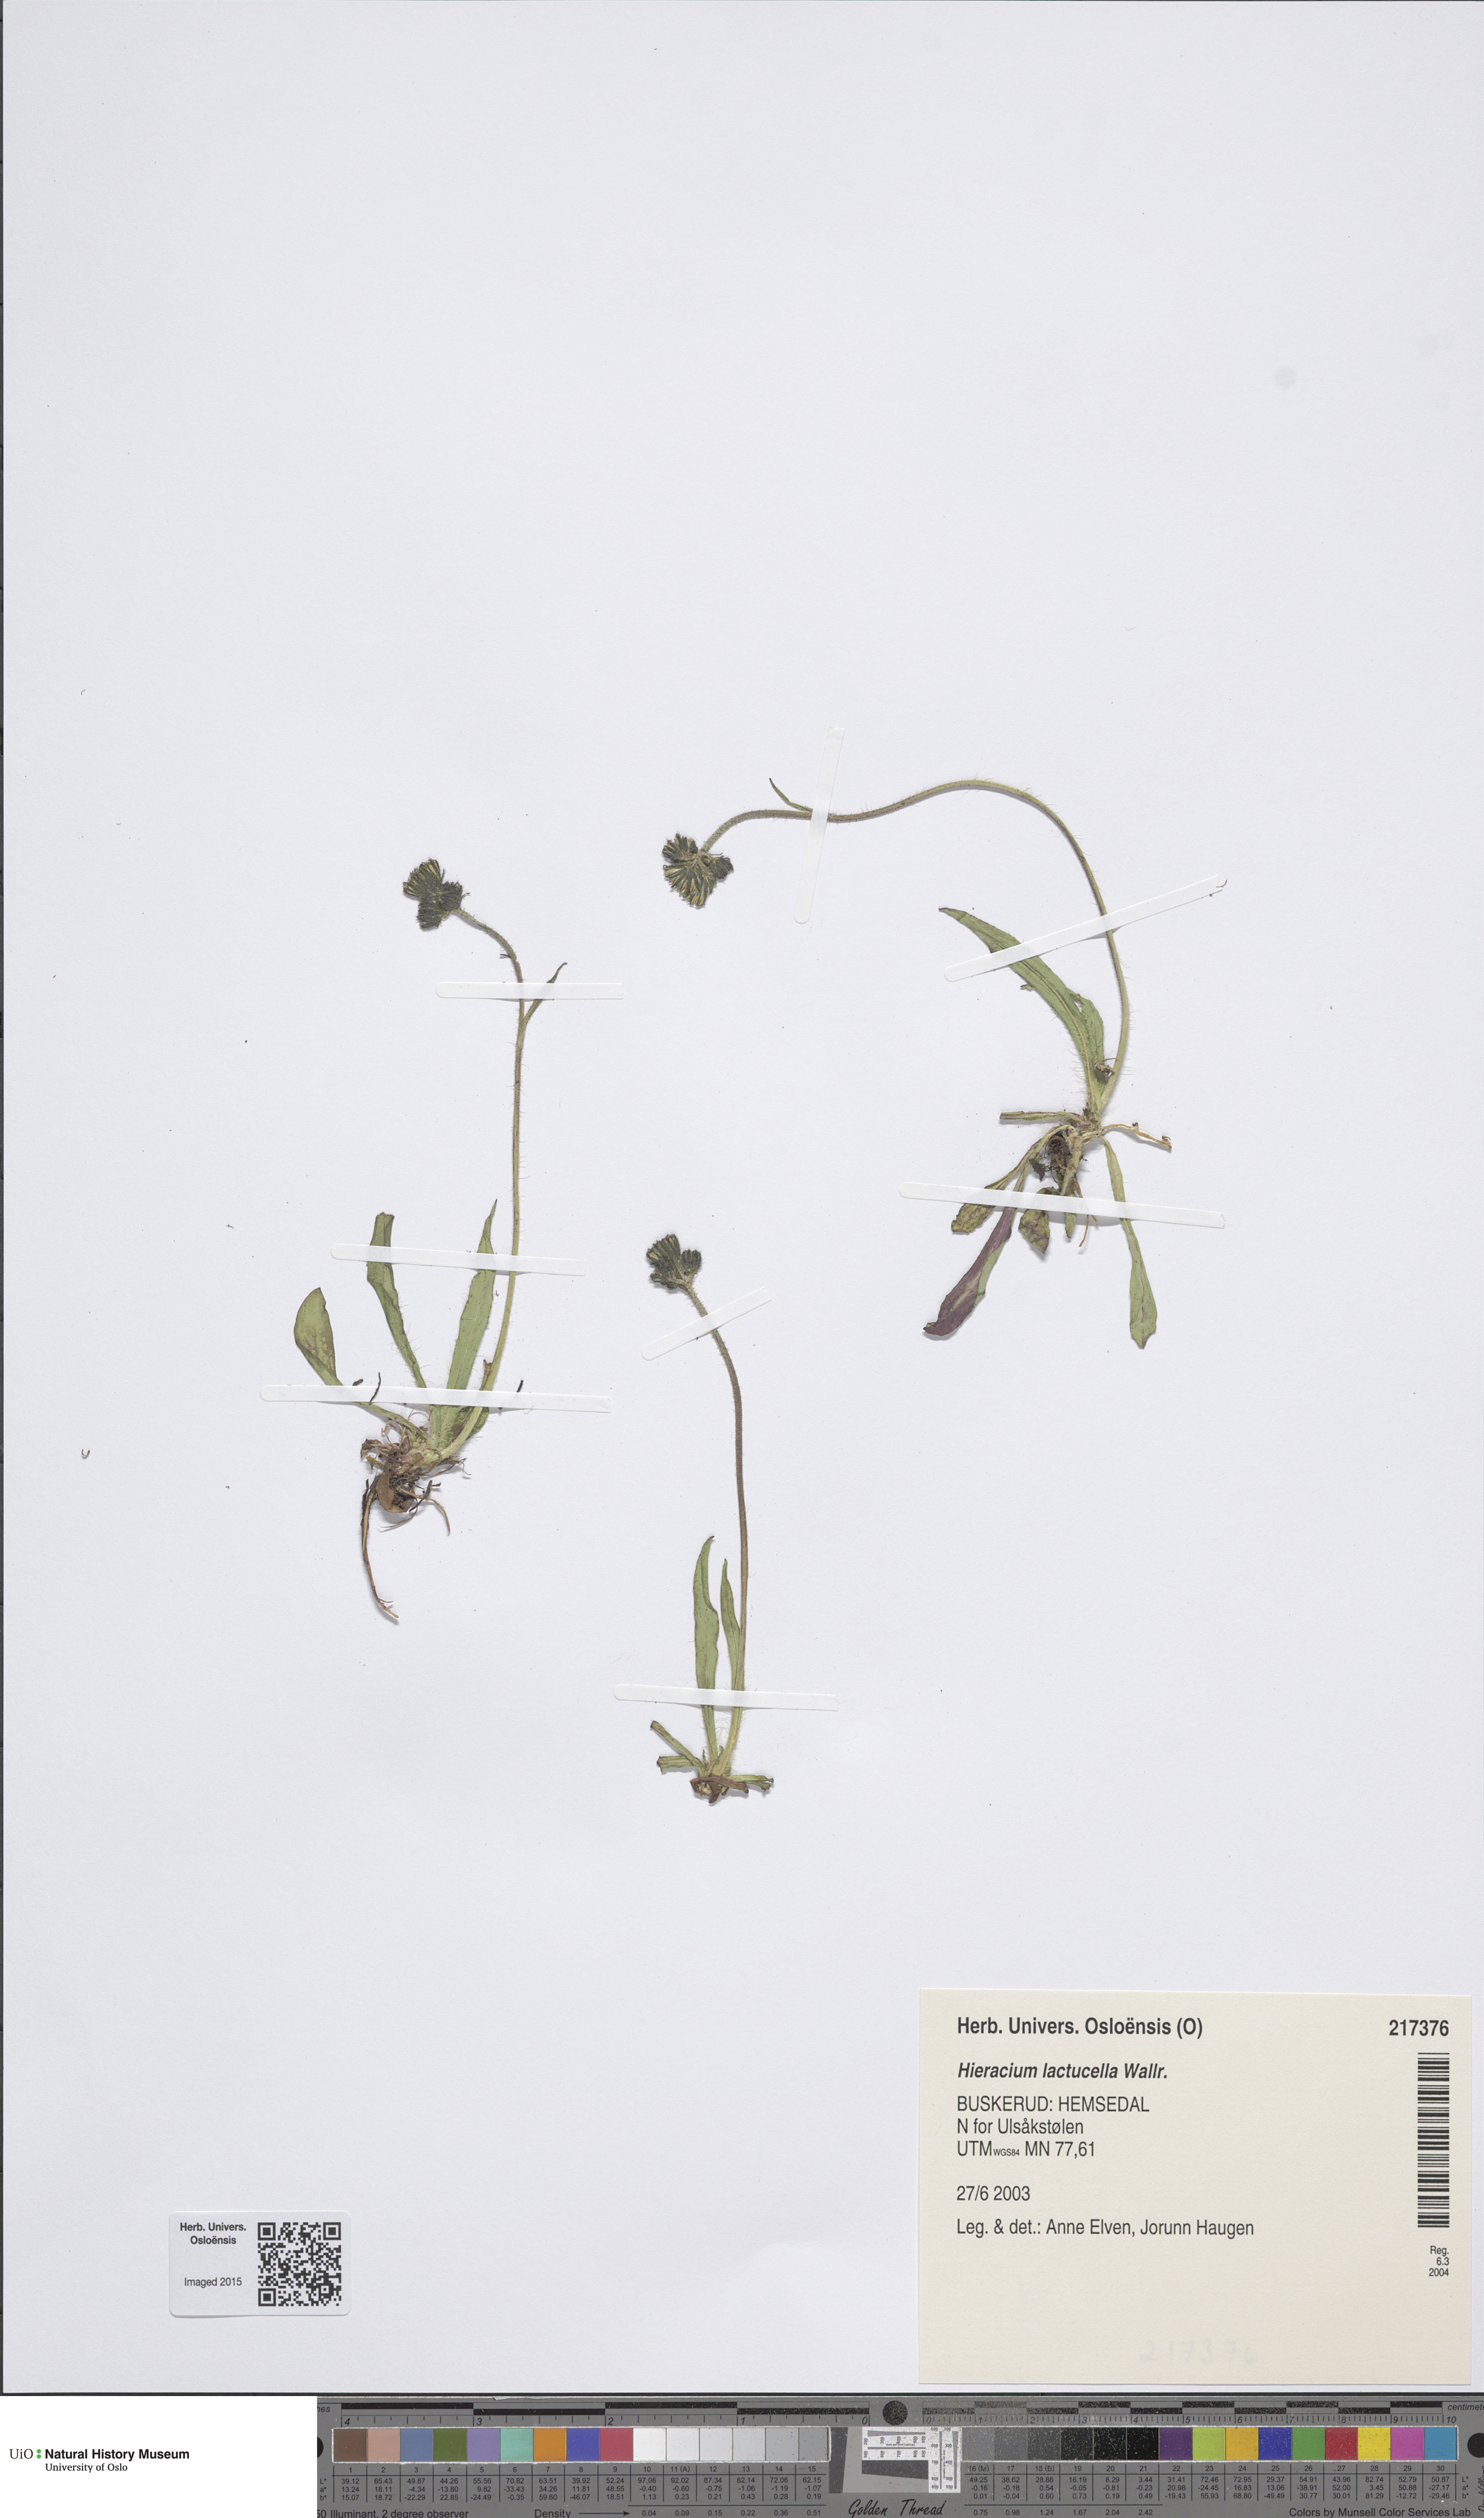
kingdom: Plantae
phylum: Tracheophyta
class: Magnoliopsida
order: Asterales
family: Asteraceae
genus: Pilosella
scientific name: Pilosella lactucella
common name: Glaucous fox-and-cubs
